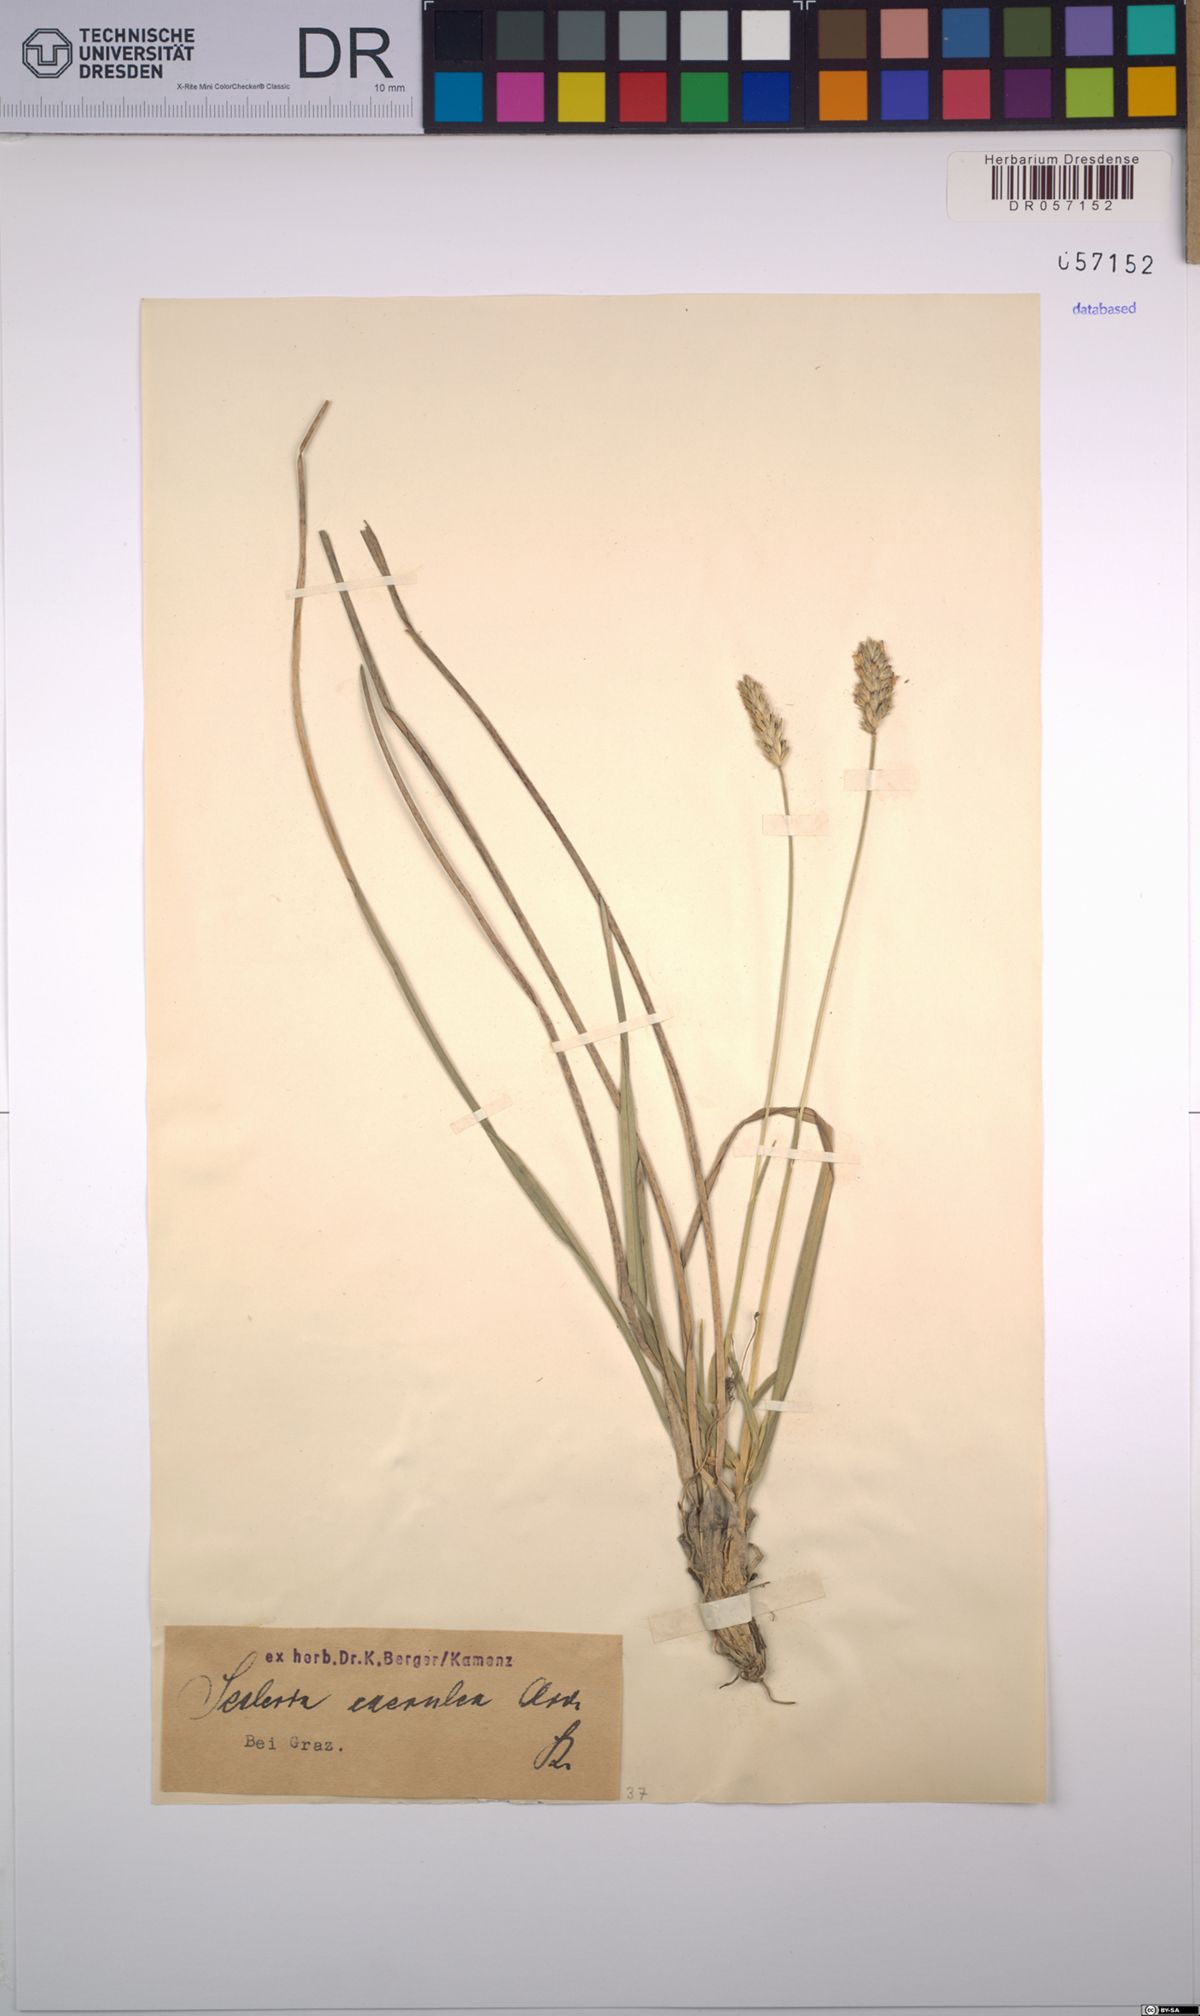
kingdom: Plantae
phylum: Tracheophyta
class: Liliopsida
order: Poales
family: Poaceae
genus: Sesleria
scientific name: Sesleria caerulea
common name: Blue moor-grass
